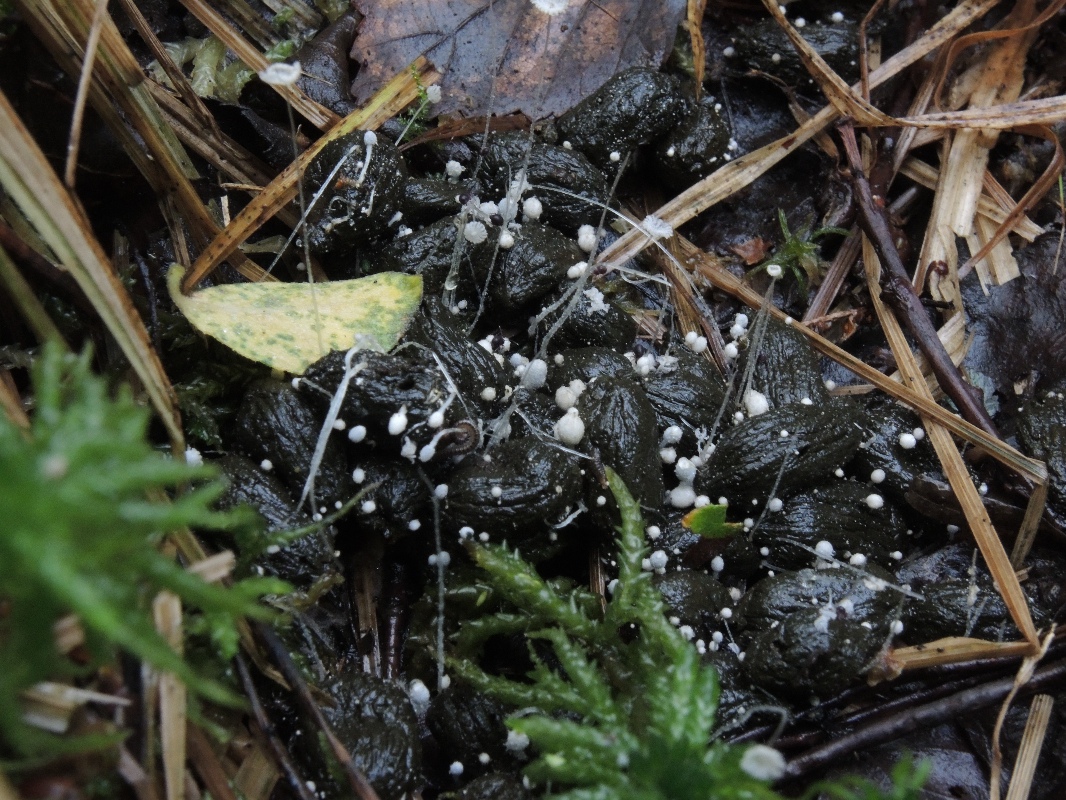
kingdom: Fungi
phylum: Basidiomycota
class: Agaricomycetes
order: Agaricales
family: Psathyrellaceae
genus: Coprinopsis
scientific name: Coprinopsis stercorea
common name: pjusket blækhat
